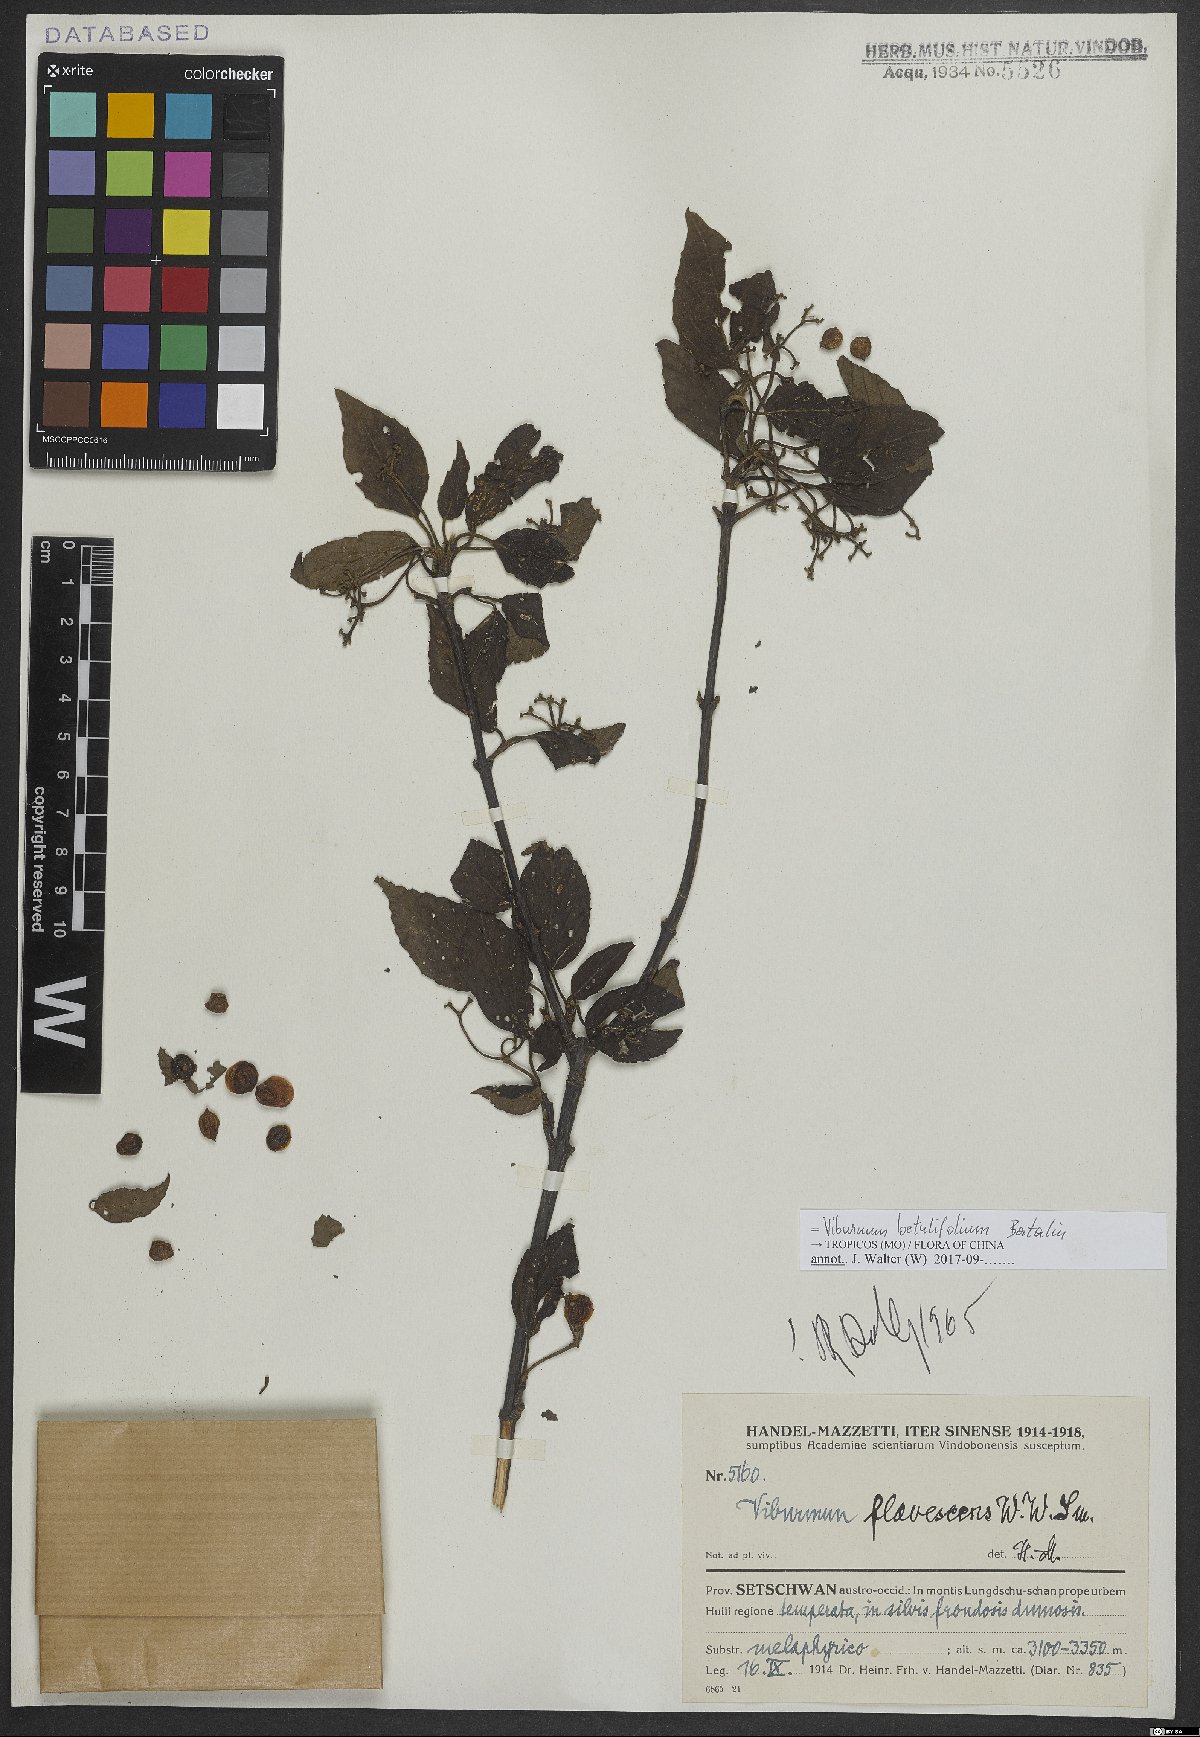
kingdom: Plantae
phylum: Tracheophyta
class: Magnoliopsida
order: Dipsacales
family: Viburnaceae
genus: Viburnum
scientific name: Viburnum betulifolium
